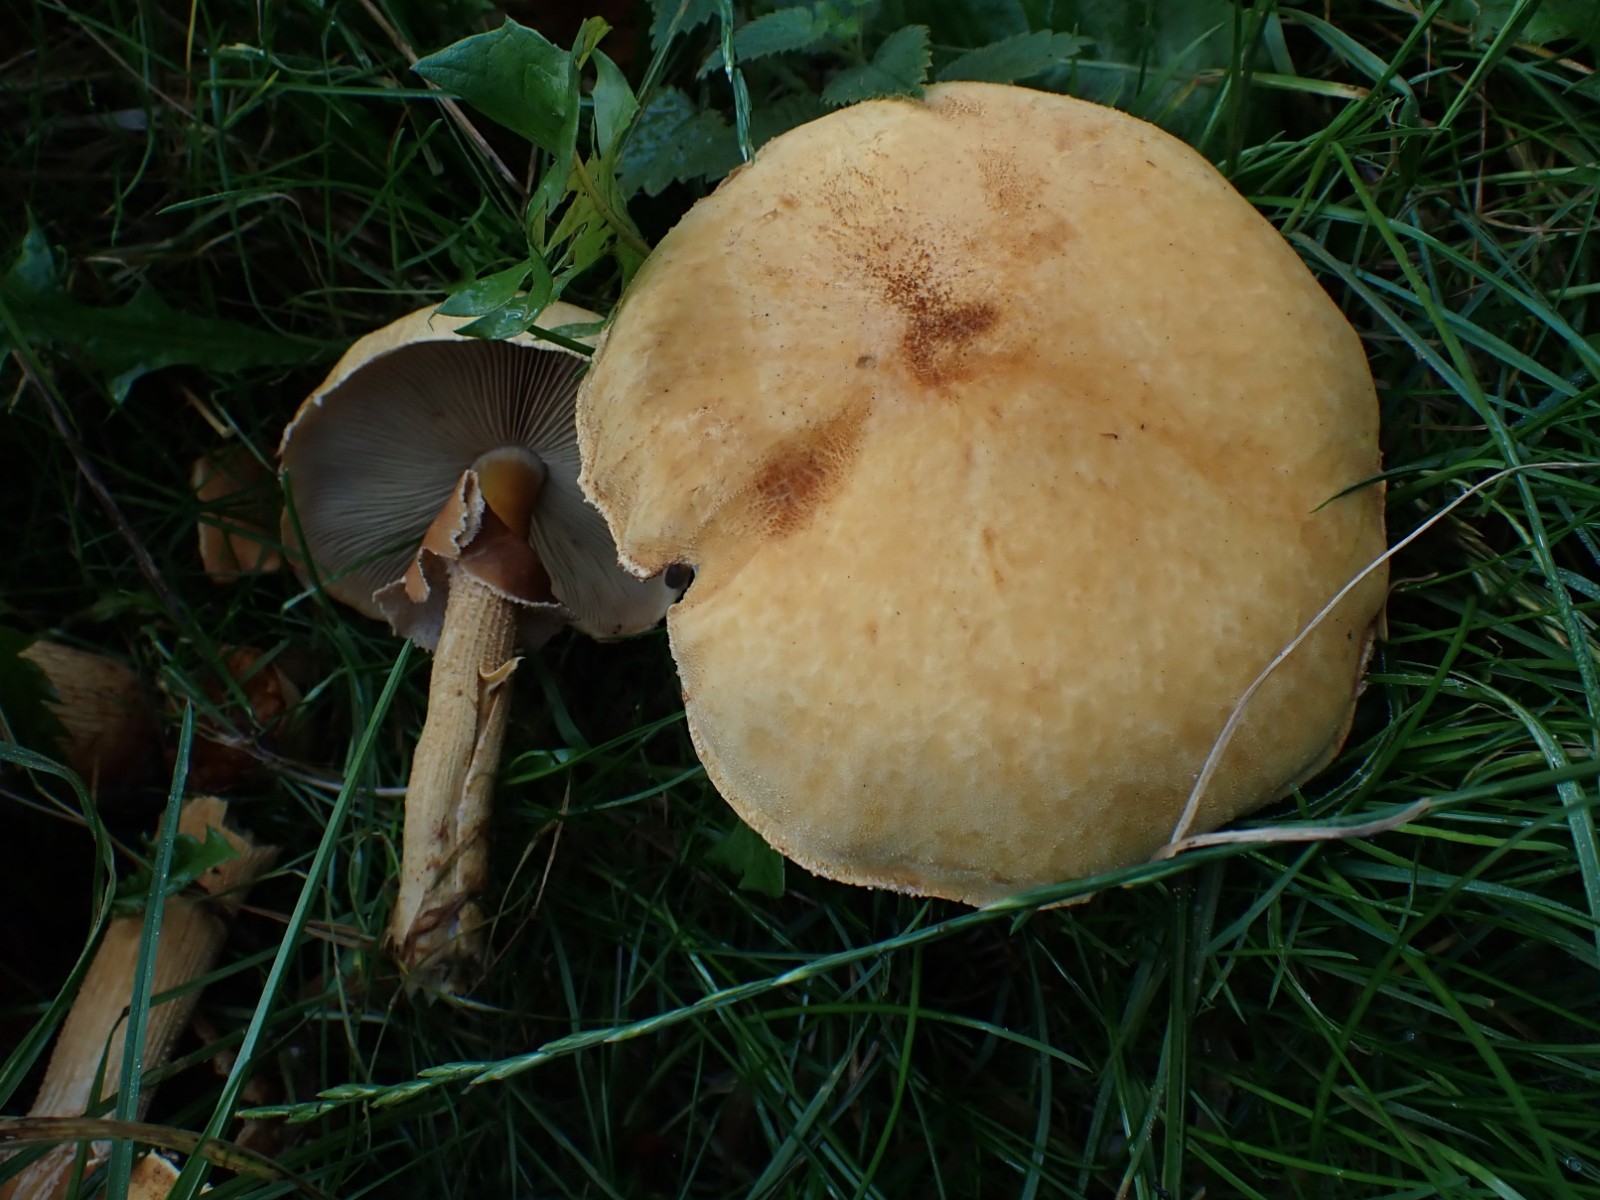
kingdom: Fungi
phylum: Basidiomycota
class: Agaricomycetes
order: Agaricales
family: Tricholomataceae
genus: Phaeolepiota
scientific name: Phaeolepiota aurea
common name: gyldenhat
